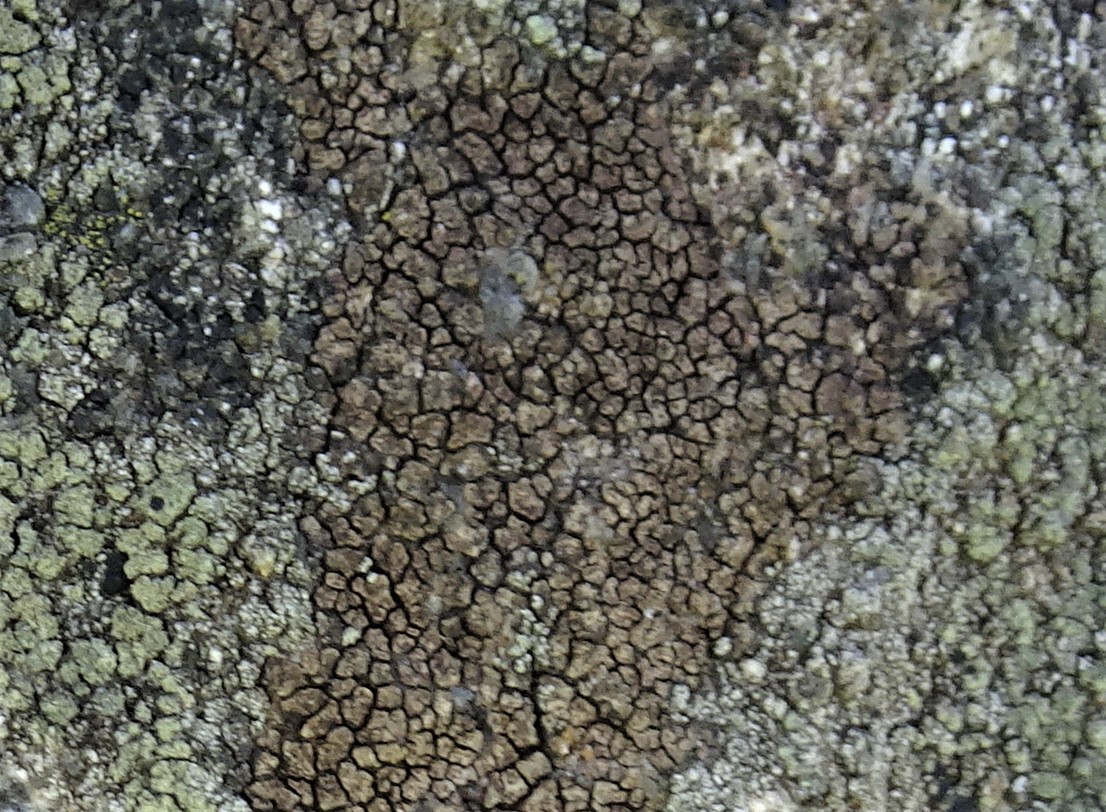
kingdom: Fungi
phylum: Ascomycota
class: Lecanoromycetes
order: Acarosporales
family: Acarosporaceae
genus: Acarospora
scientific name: Acarospora fuscata
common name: brun småsporelav
